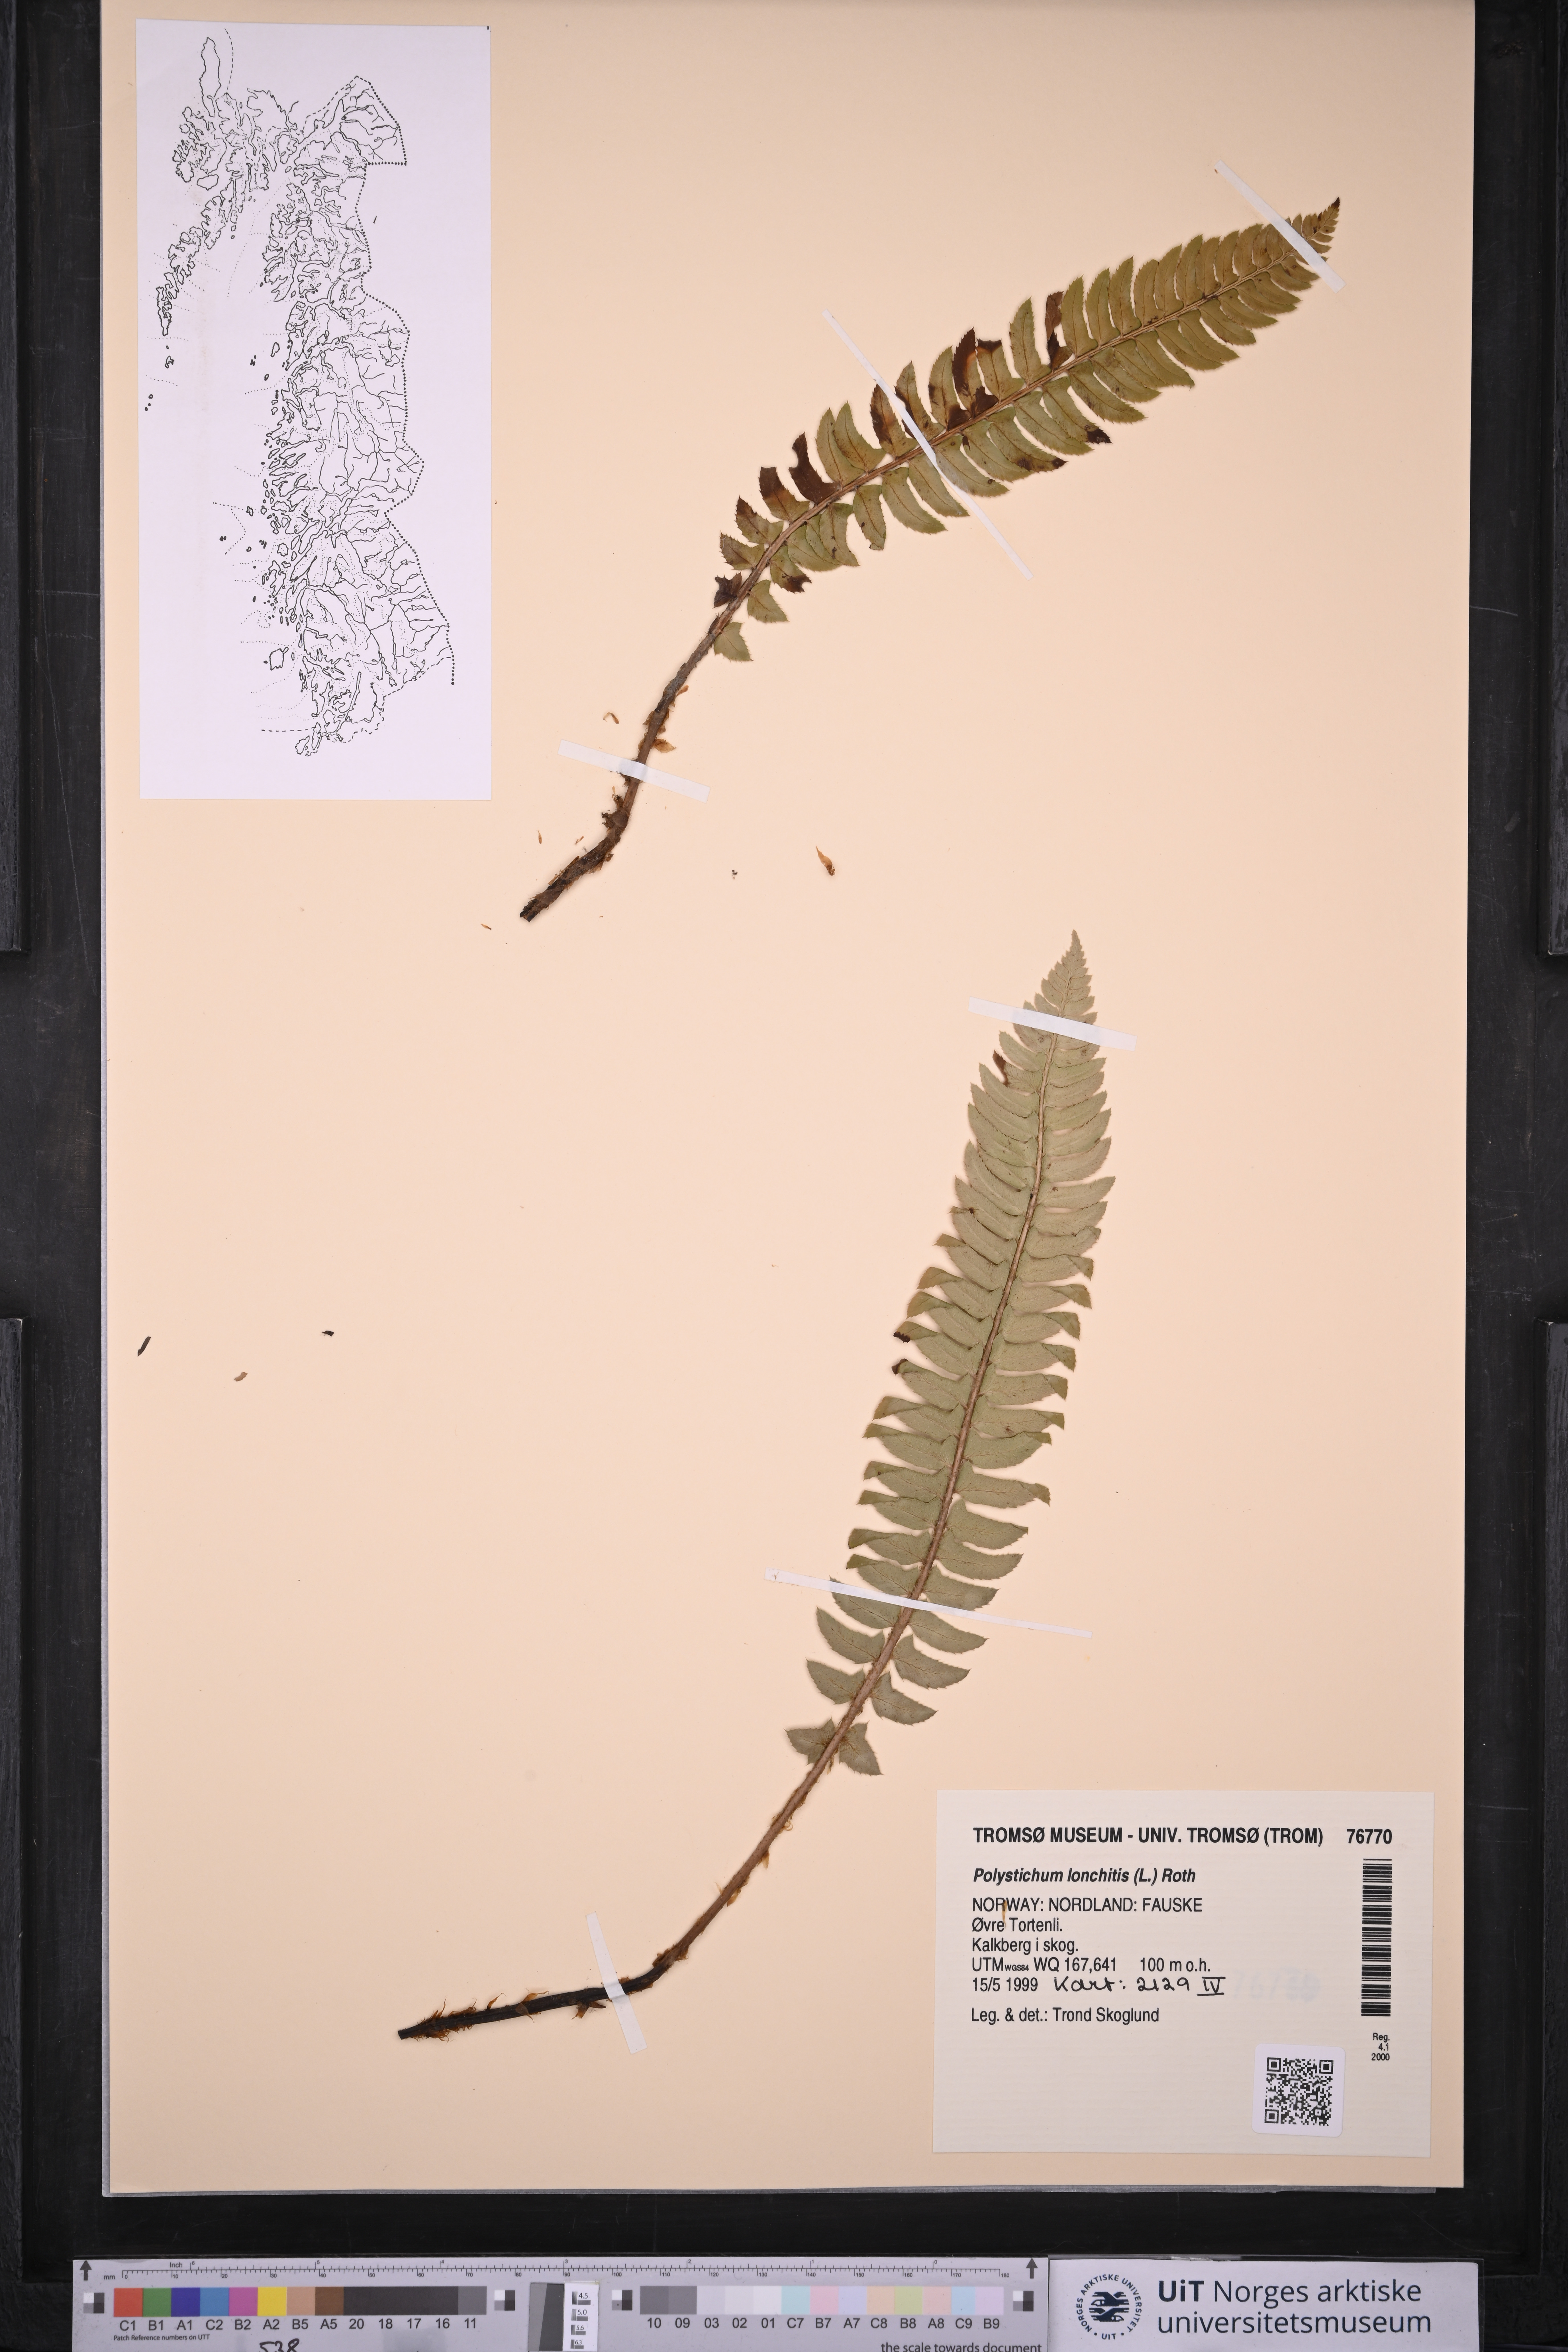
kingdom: Plantae
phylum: Tracheophyta
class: Polypodiopsida
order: Polypodiales
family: Dryopteridaceae
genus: Polystichum
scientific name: Polystichum lonchitis
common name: Holly fern
